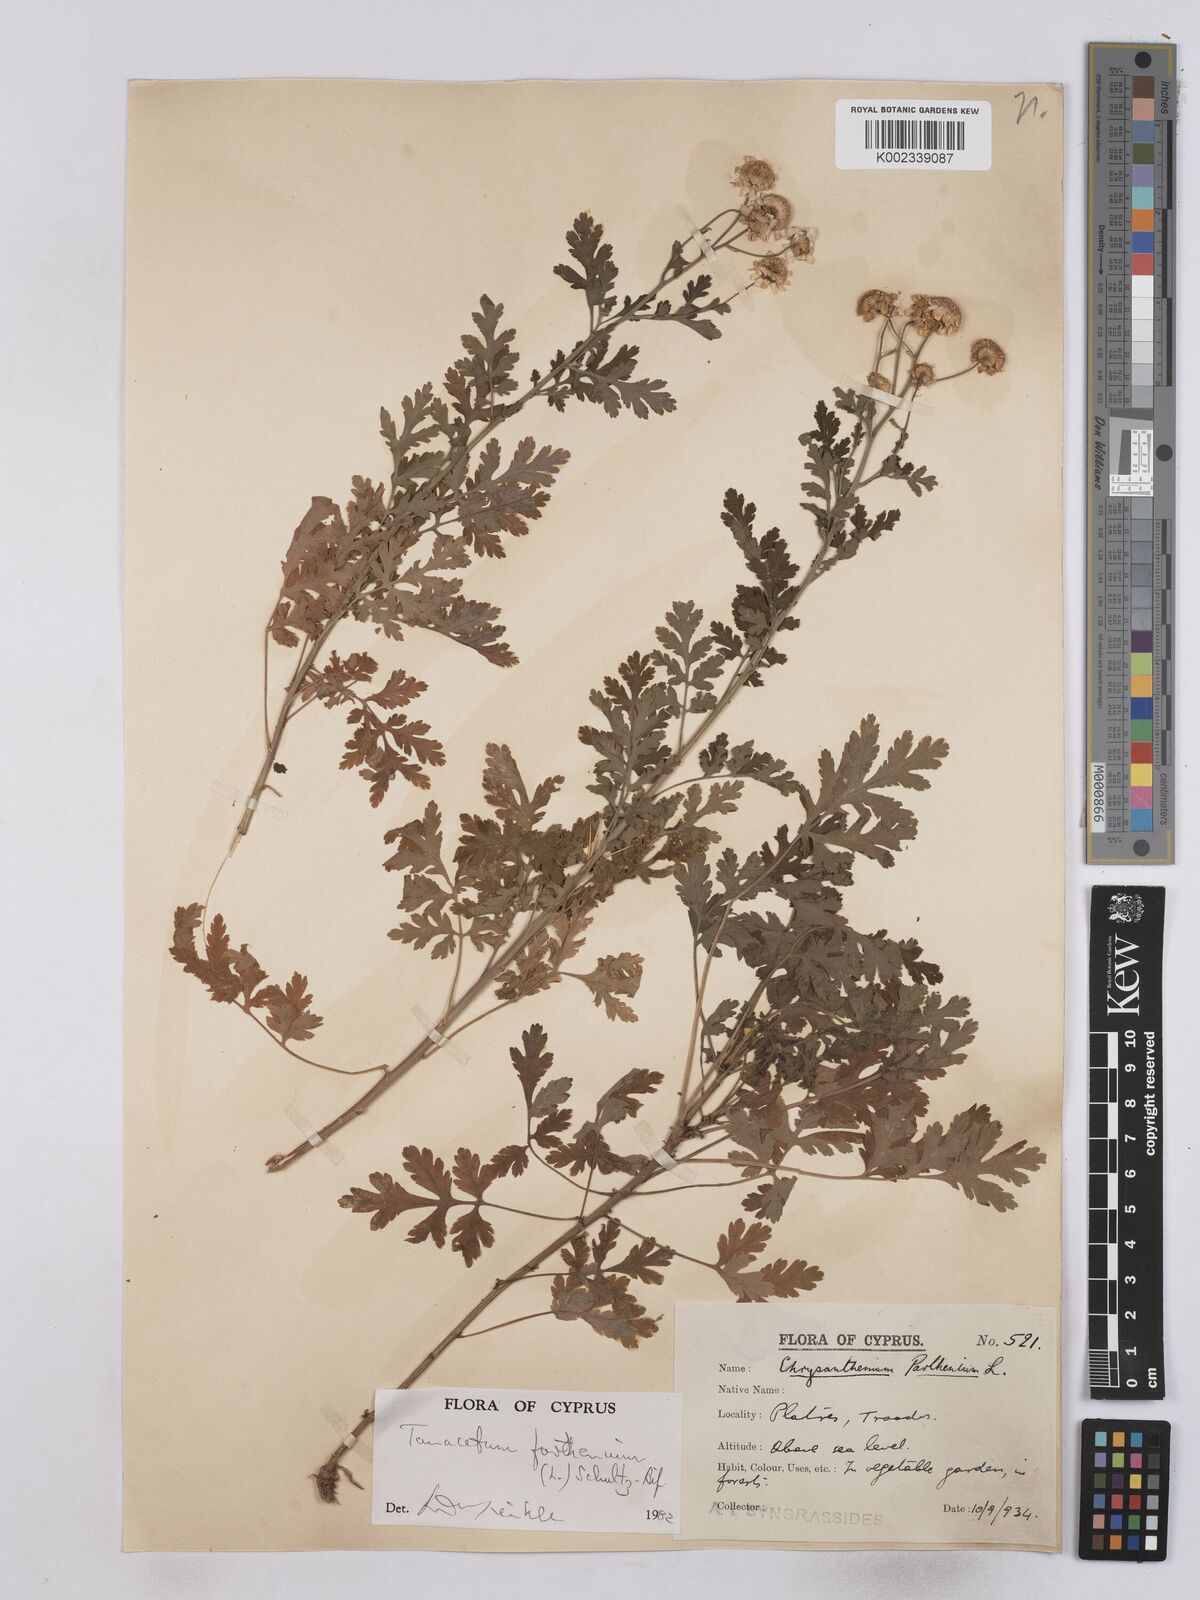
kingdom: Plantae
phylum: Tracheophyta
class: Magnoliopsida
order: Asterales
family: Asteraceae
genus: Tanacetum
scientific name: Tanacetum parthenium
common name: Feverfew
